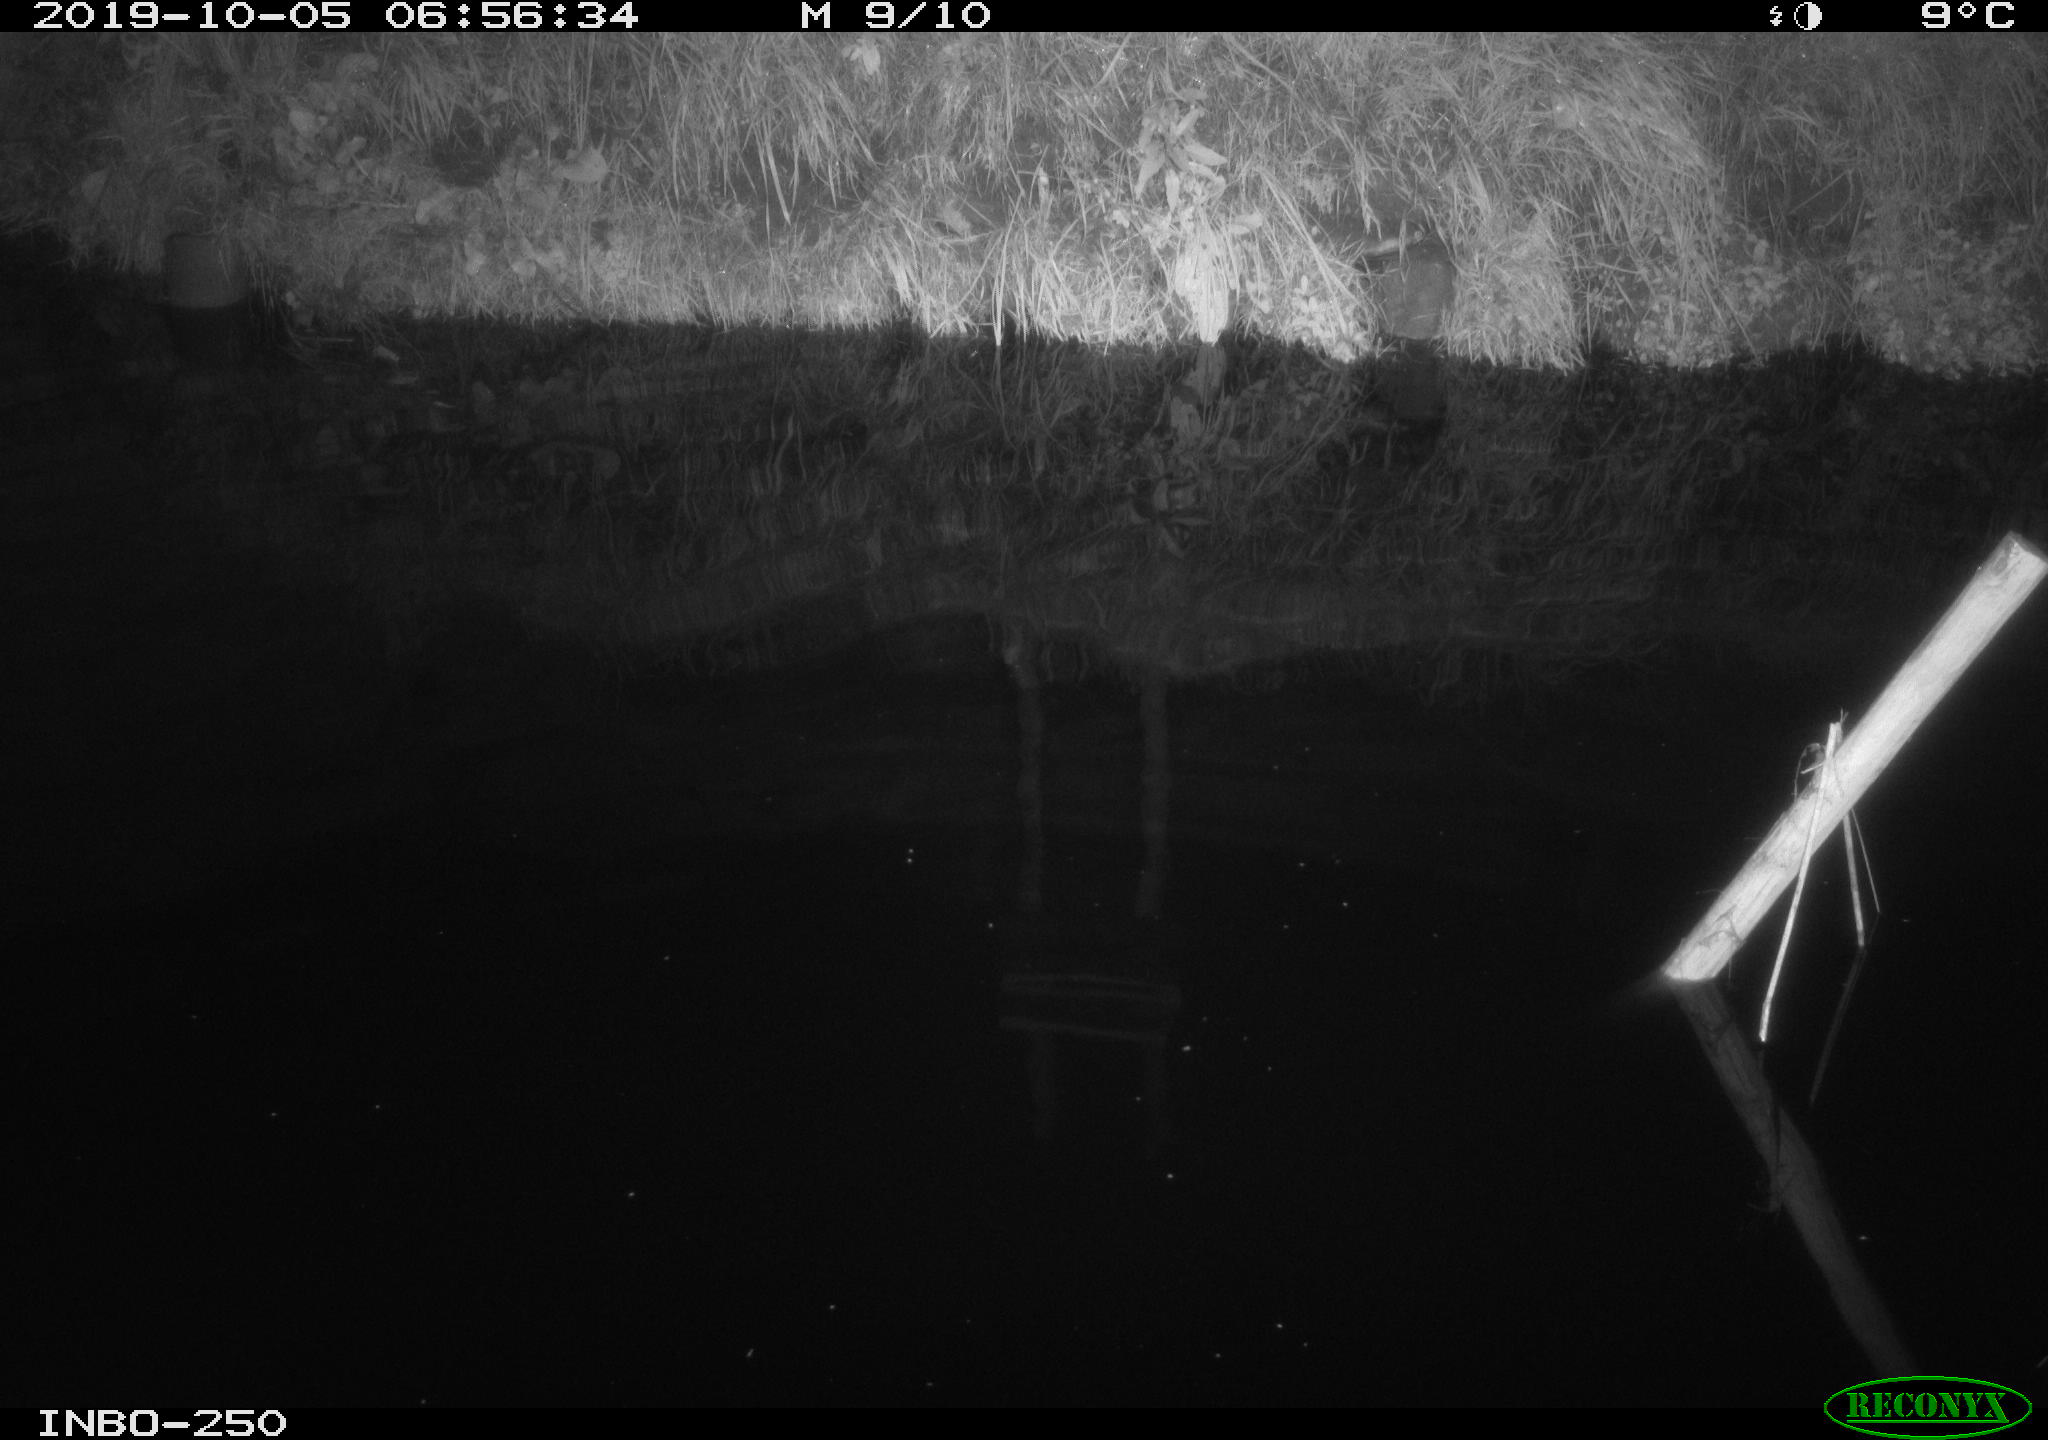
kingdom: Animalia
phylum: Chordata
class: Aves
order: Anseriformes
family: Anatidae
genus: Anas
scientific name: Anas platyrhynchos
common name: Mallard
